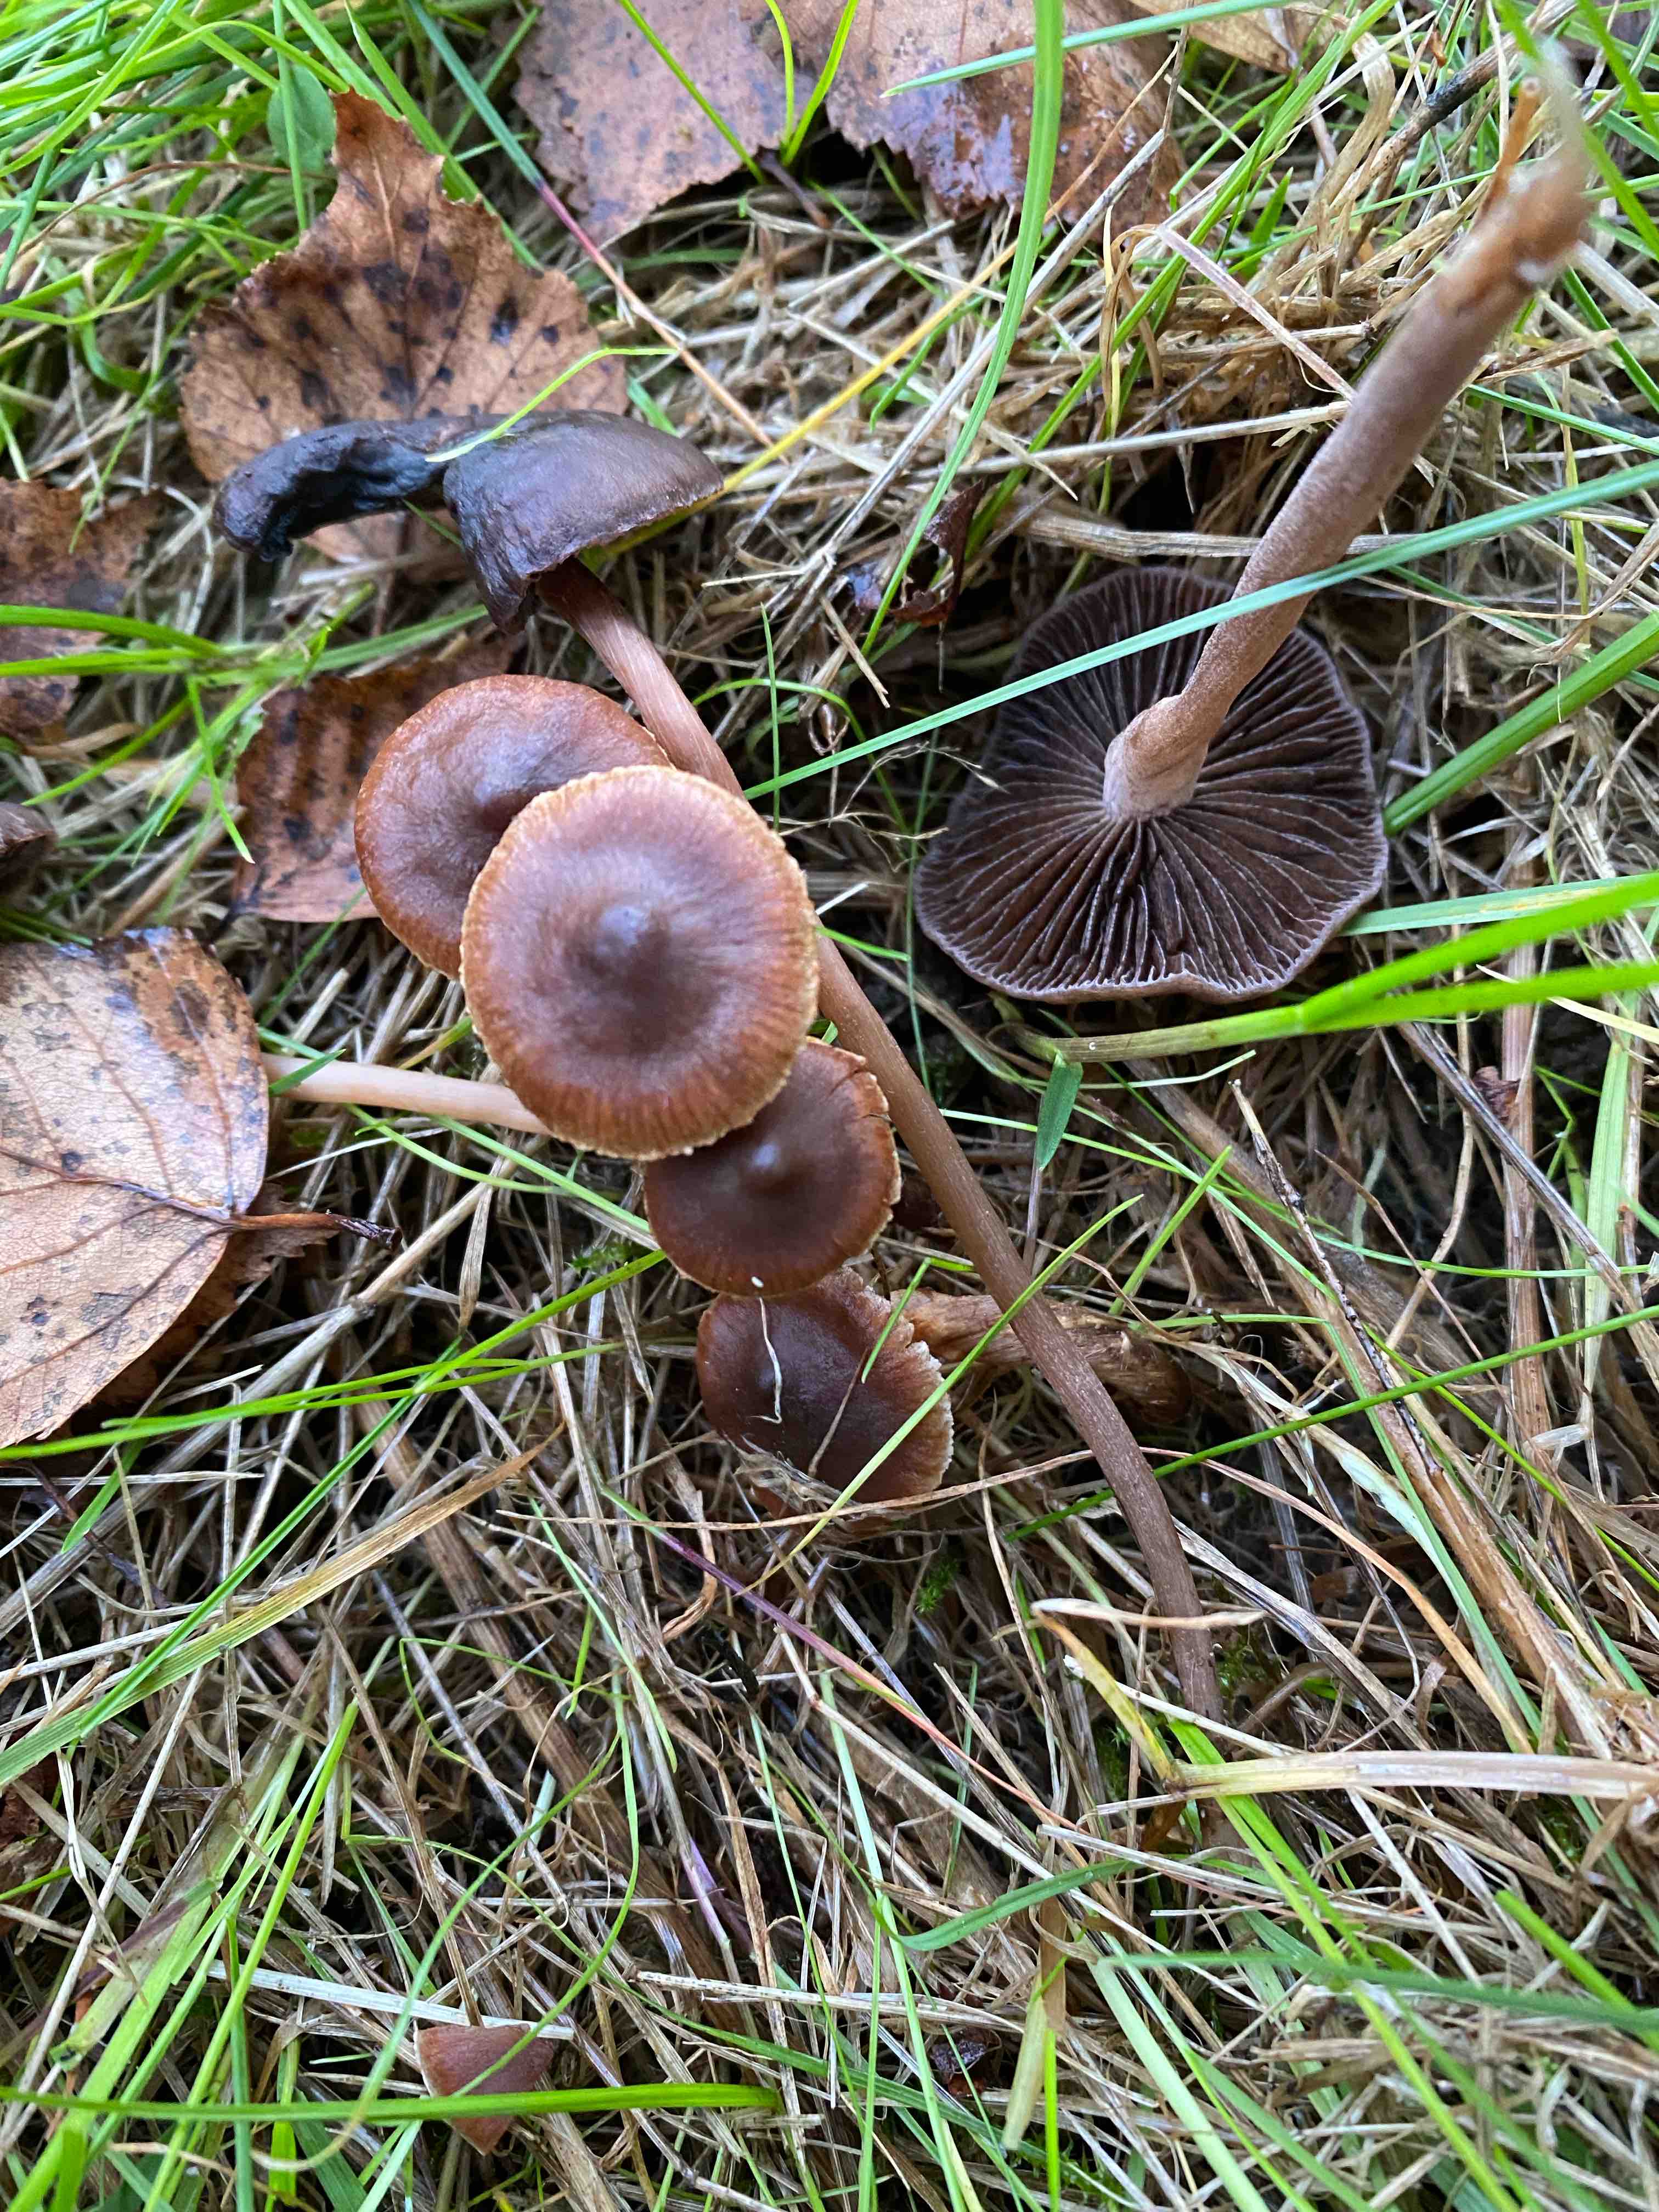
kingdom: Fungi
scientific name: Fungi
